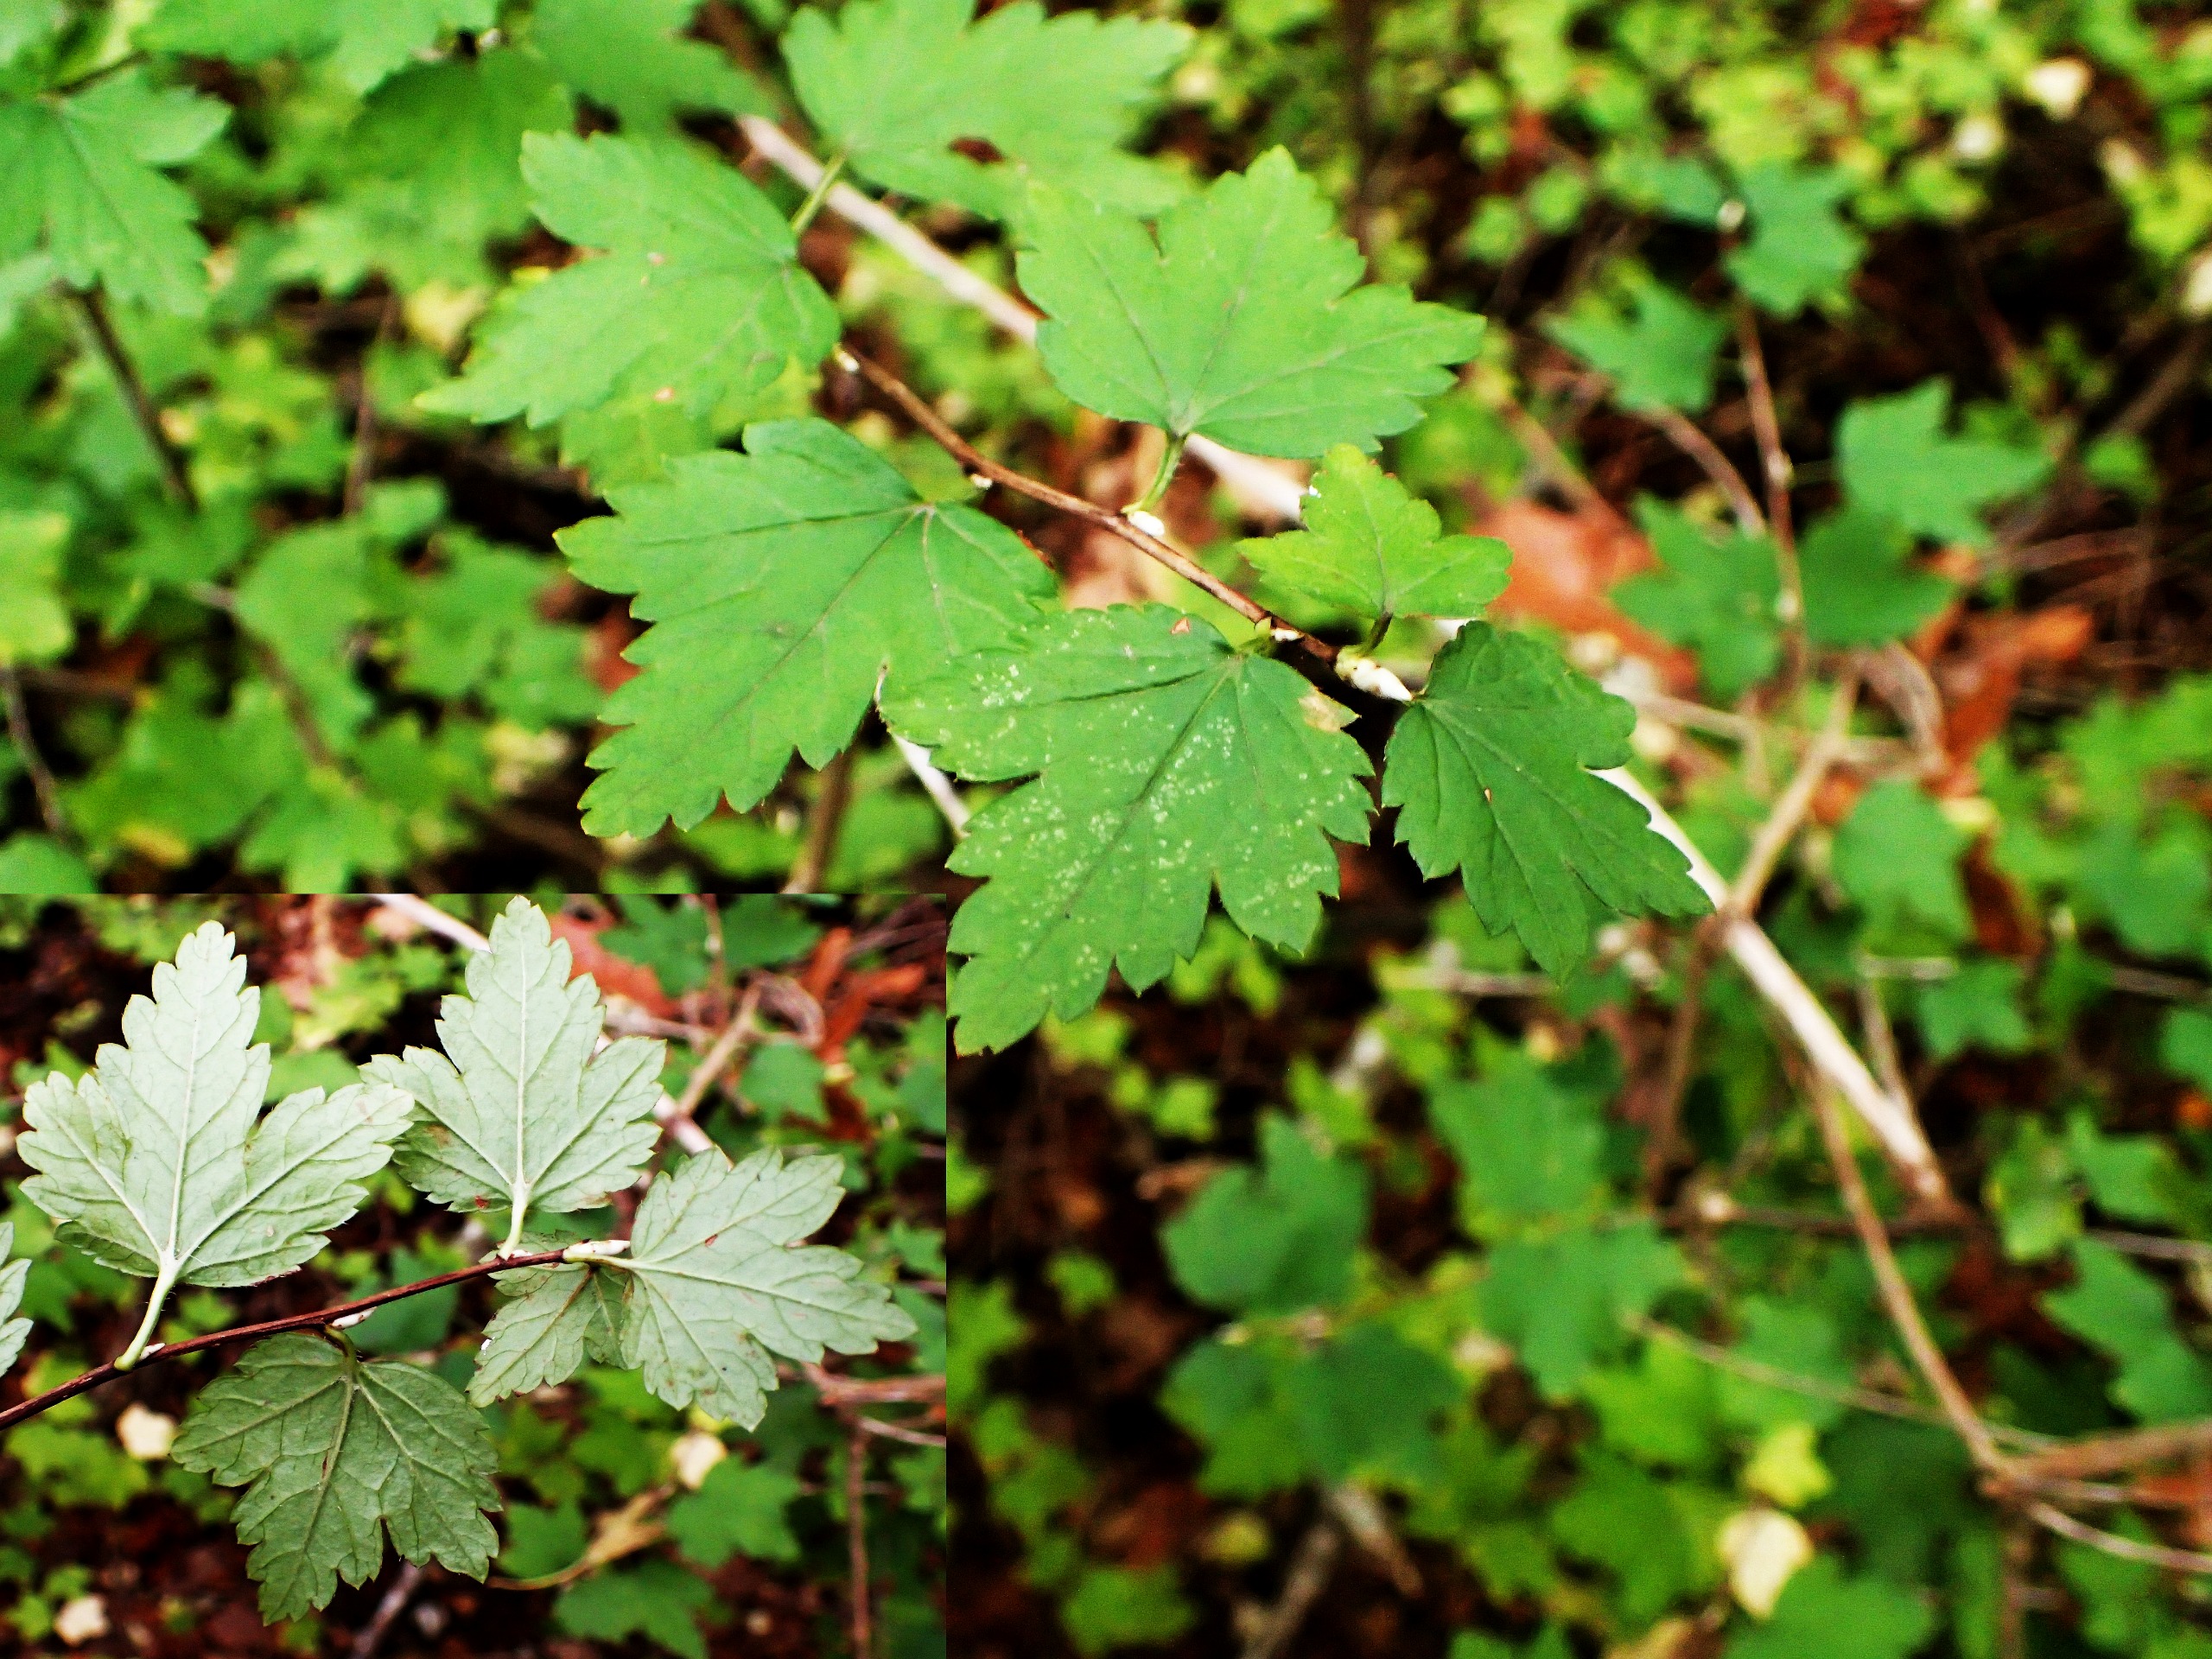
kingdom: Plantae
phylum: Tracheophyta
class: Magnoliopsida
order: Saxifragales
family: Grossulariaceae
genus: Ribes
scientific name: Ribes alpinum
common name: Fjeld-ribs
